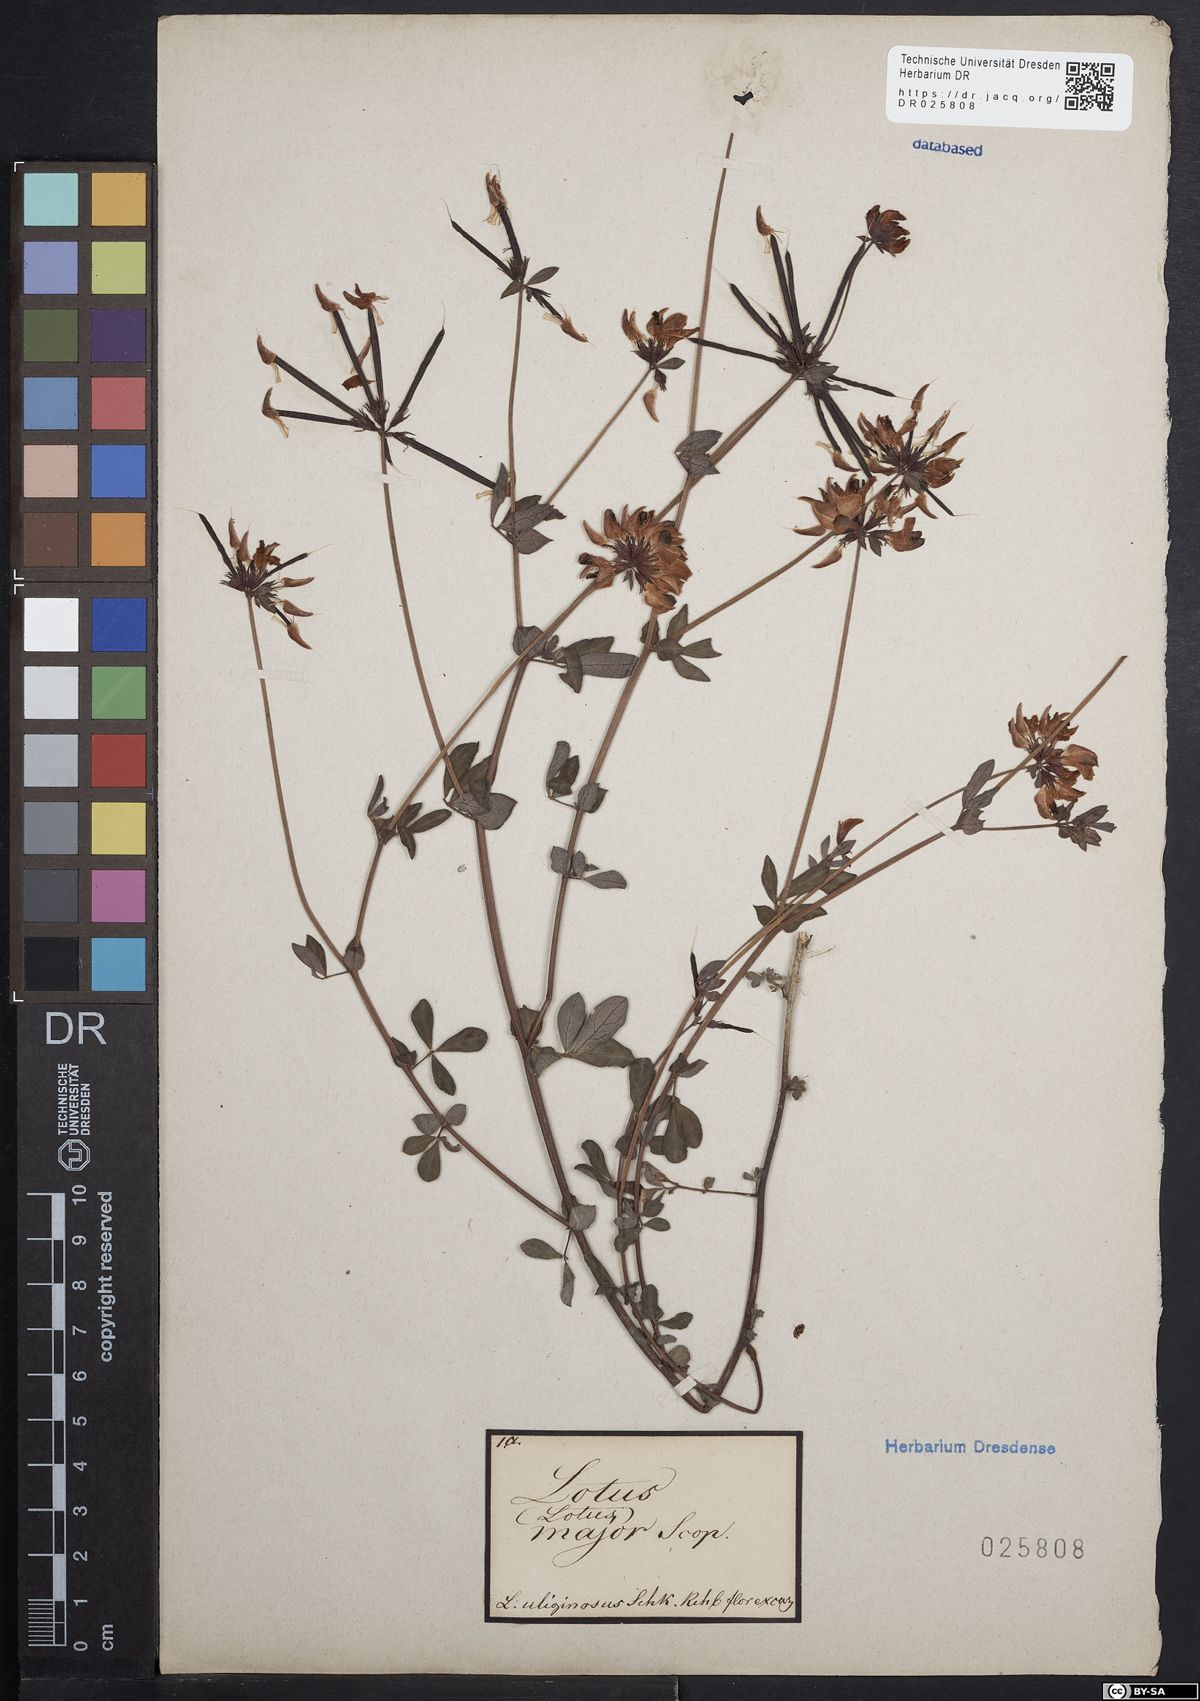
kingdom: Plantae
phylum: Tracheophyta
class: Magnoliopsida
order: Fabales
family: Fabaceae
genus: Lotus
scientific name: Lotus pedunculatus
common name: Greater birdsfoot-trefoil
